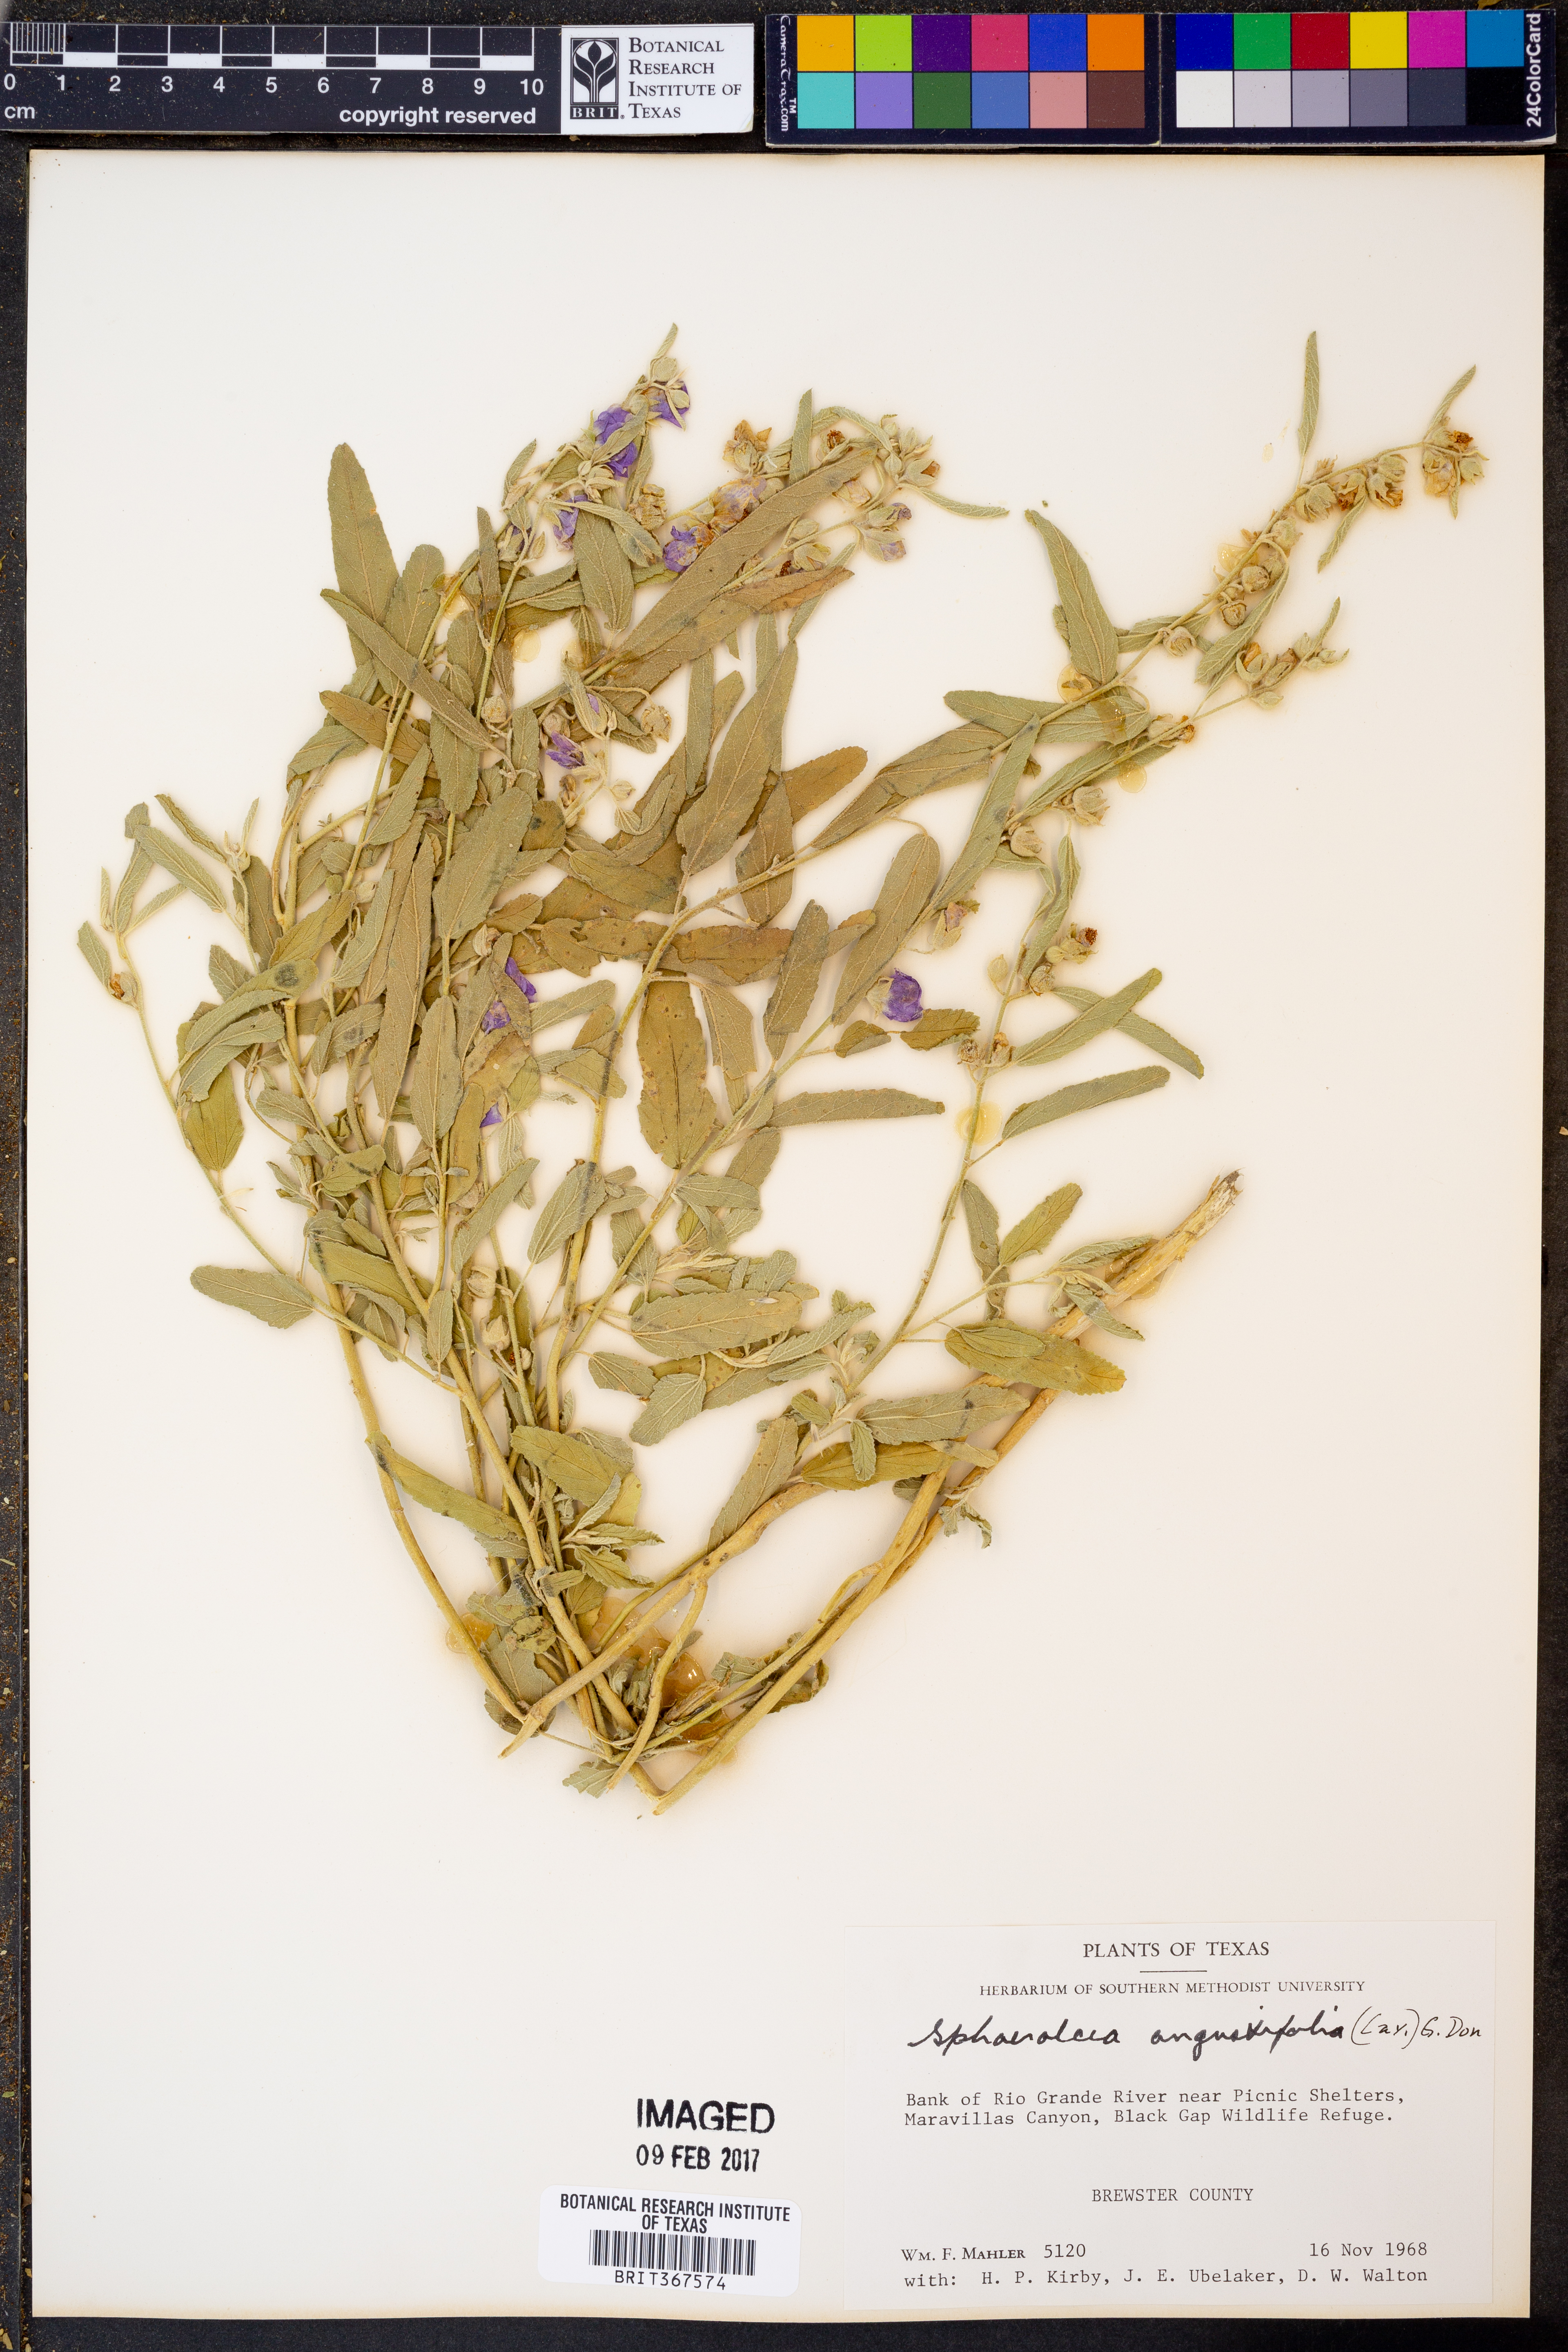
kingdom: Plantae
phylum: Tracheophyta
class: Magnoliopsida
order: Malvales
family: Malvaceae
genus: Sphaeralcea
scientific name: Sphaeralcea angustifolia
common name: Copper globe-mallow
